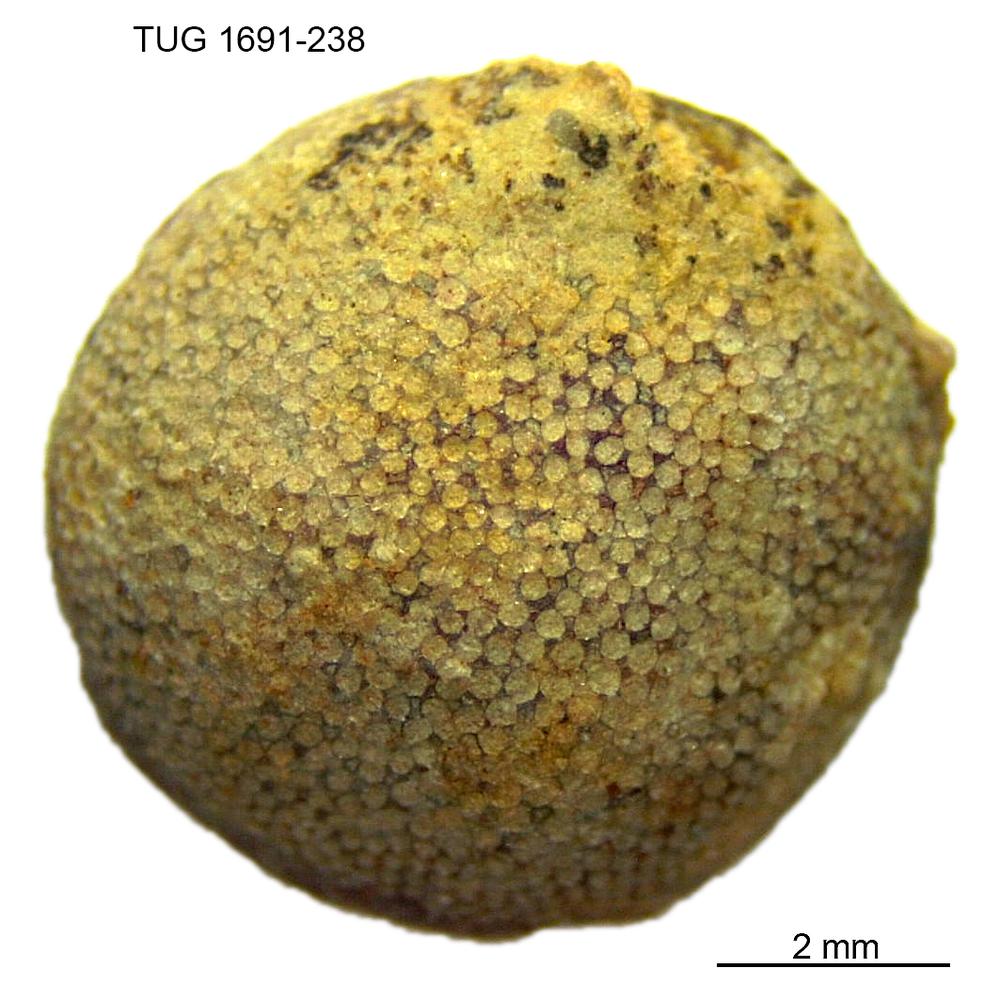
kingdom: Animalia
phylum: Bryozoa
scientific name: Bryozoa
